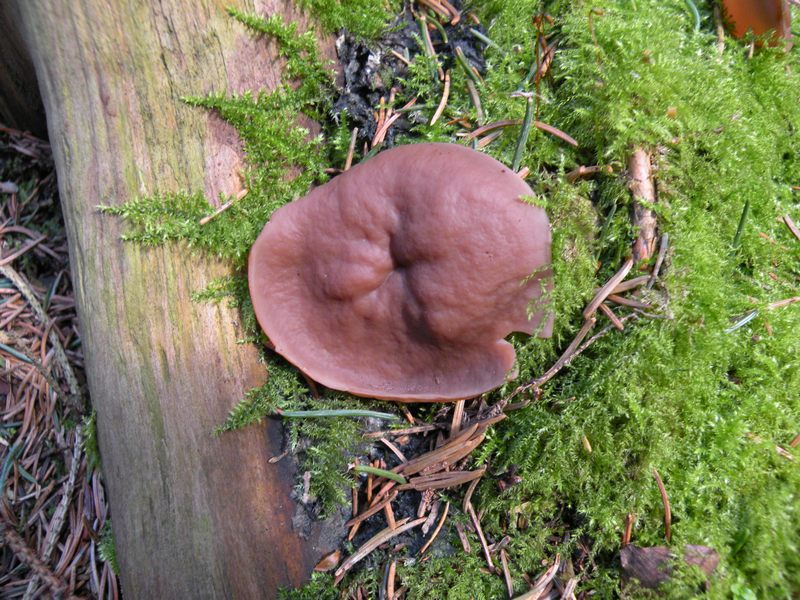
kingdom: Fungi
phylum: Ascomycota
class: Pezizomycetes
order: Pezizales
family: Discinaceae
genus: Discina
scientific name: Discina ancilis
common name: udbredt stenmorkel
